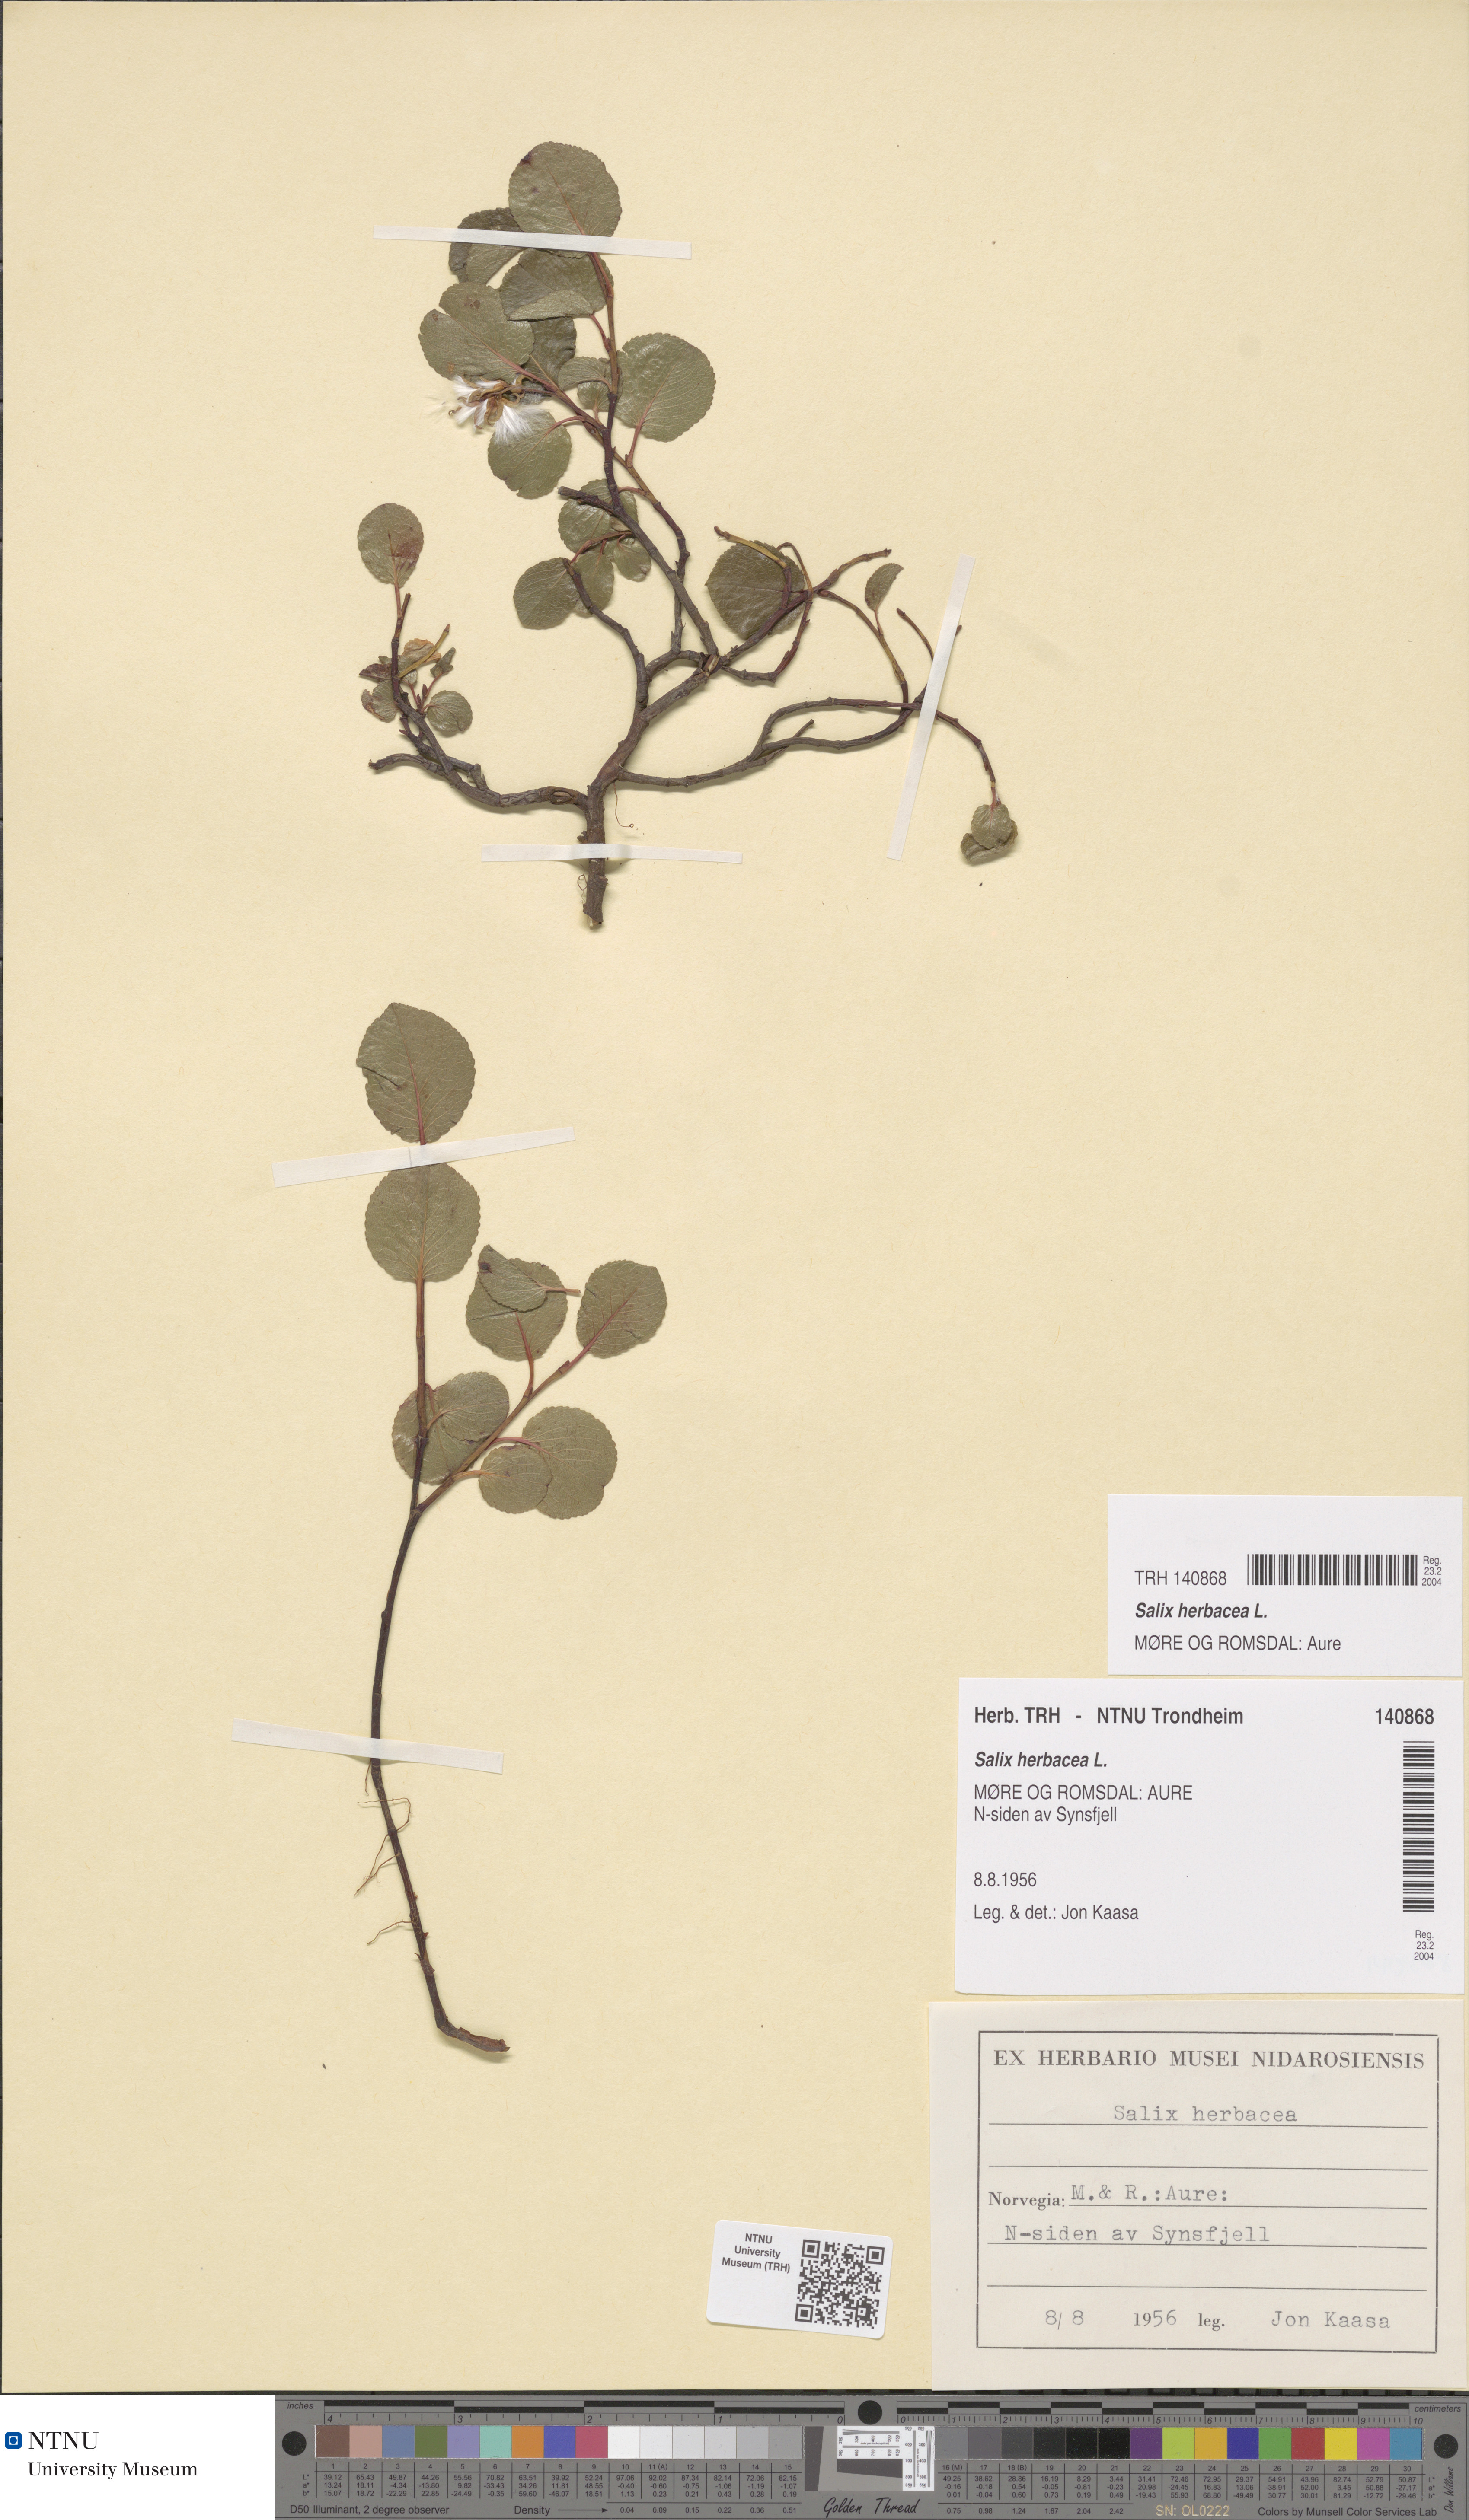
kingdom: Plantae
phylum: Tracheophyta
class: Magnoliopsida
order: Malpighiales
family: Salicaceae
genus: Salix
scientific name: Salix herbacea
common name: Dwarf willow
